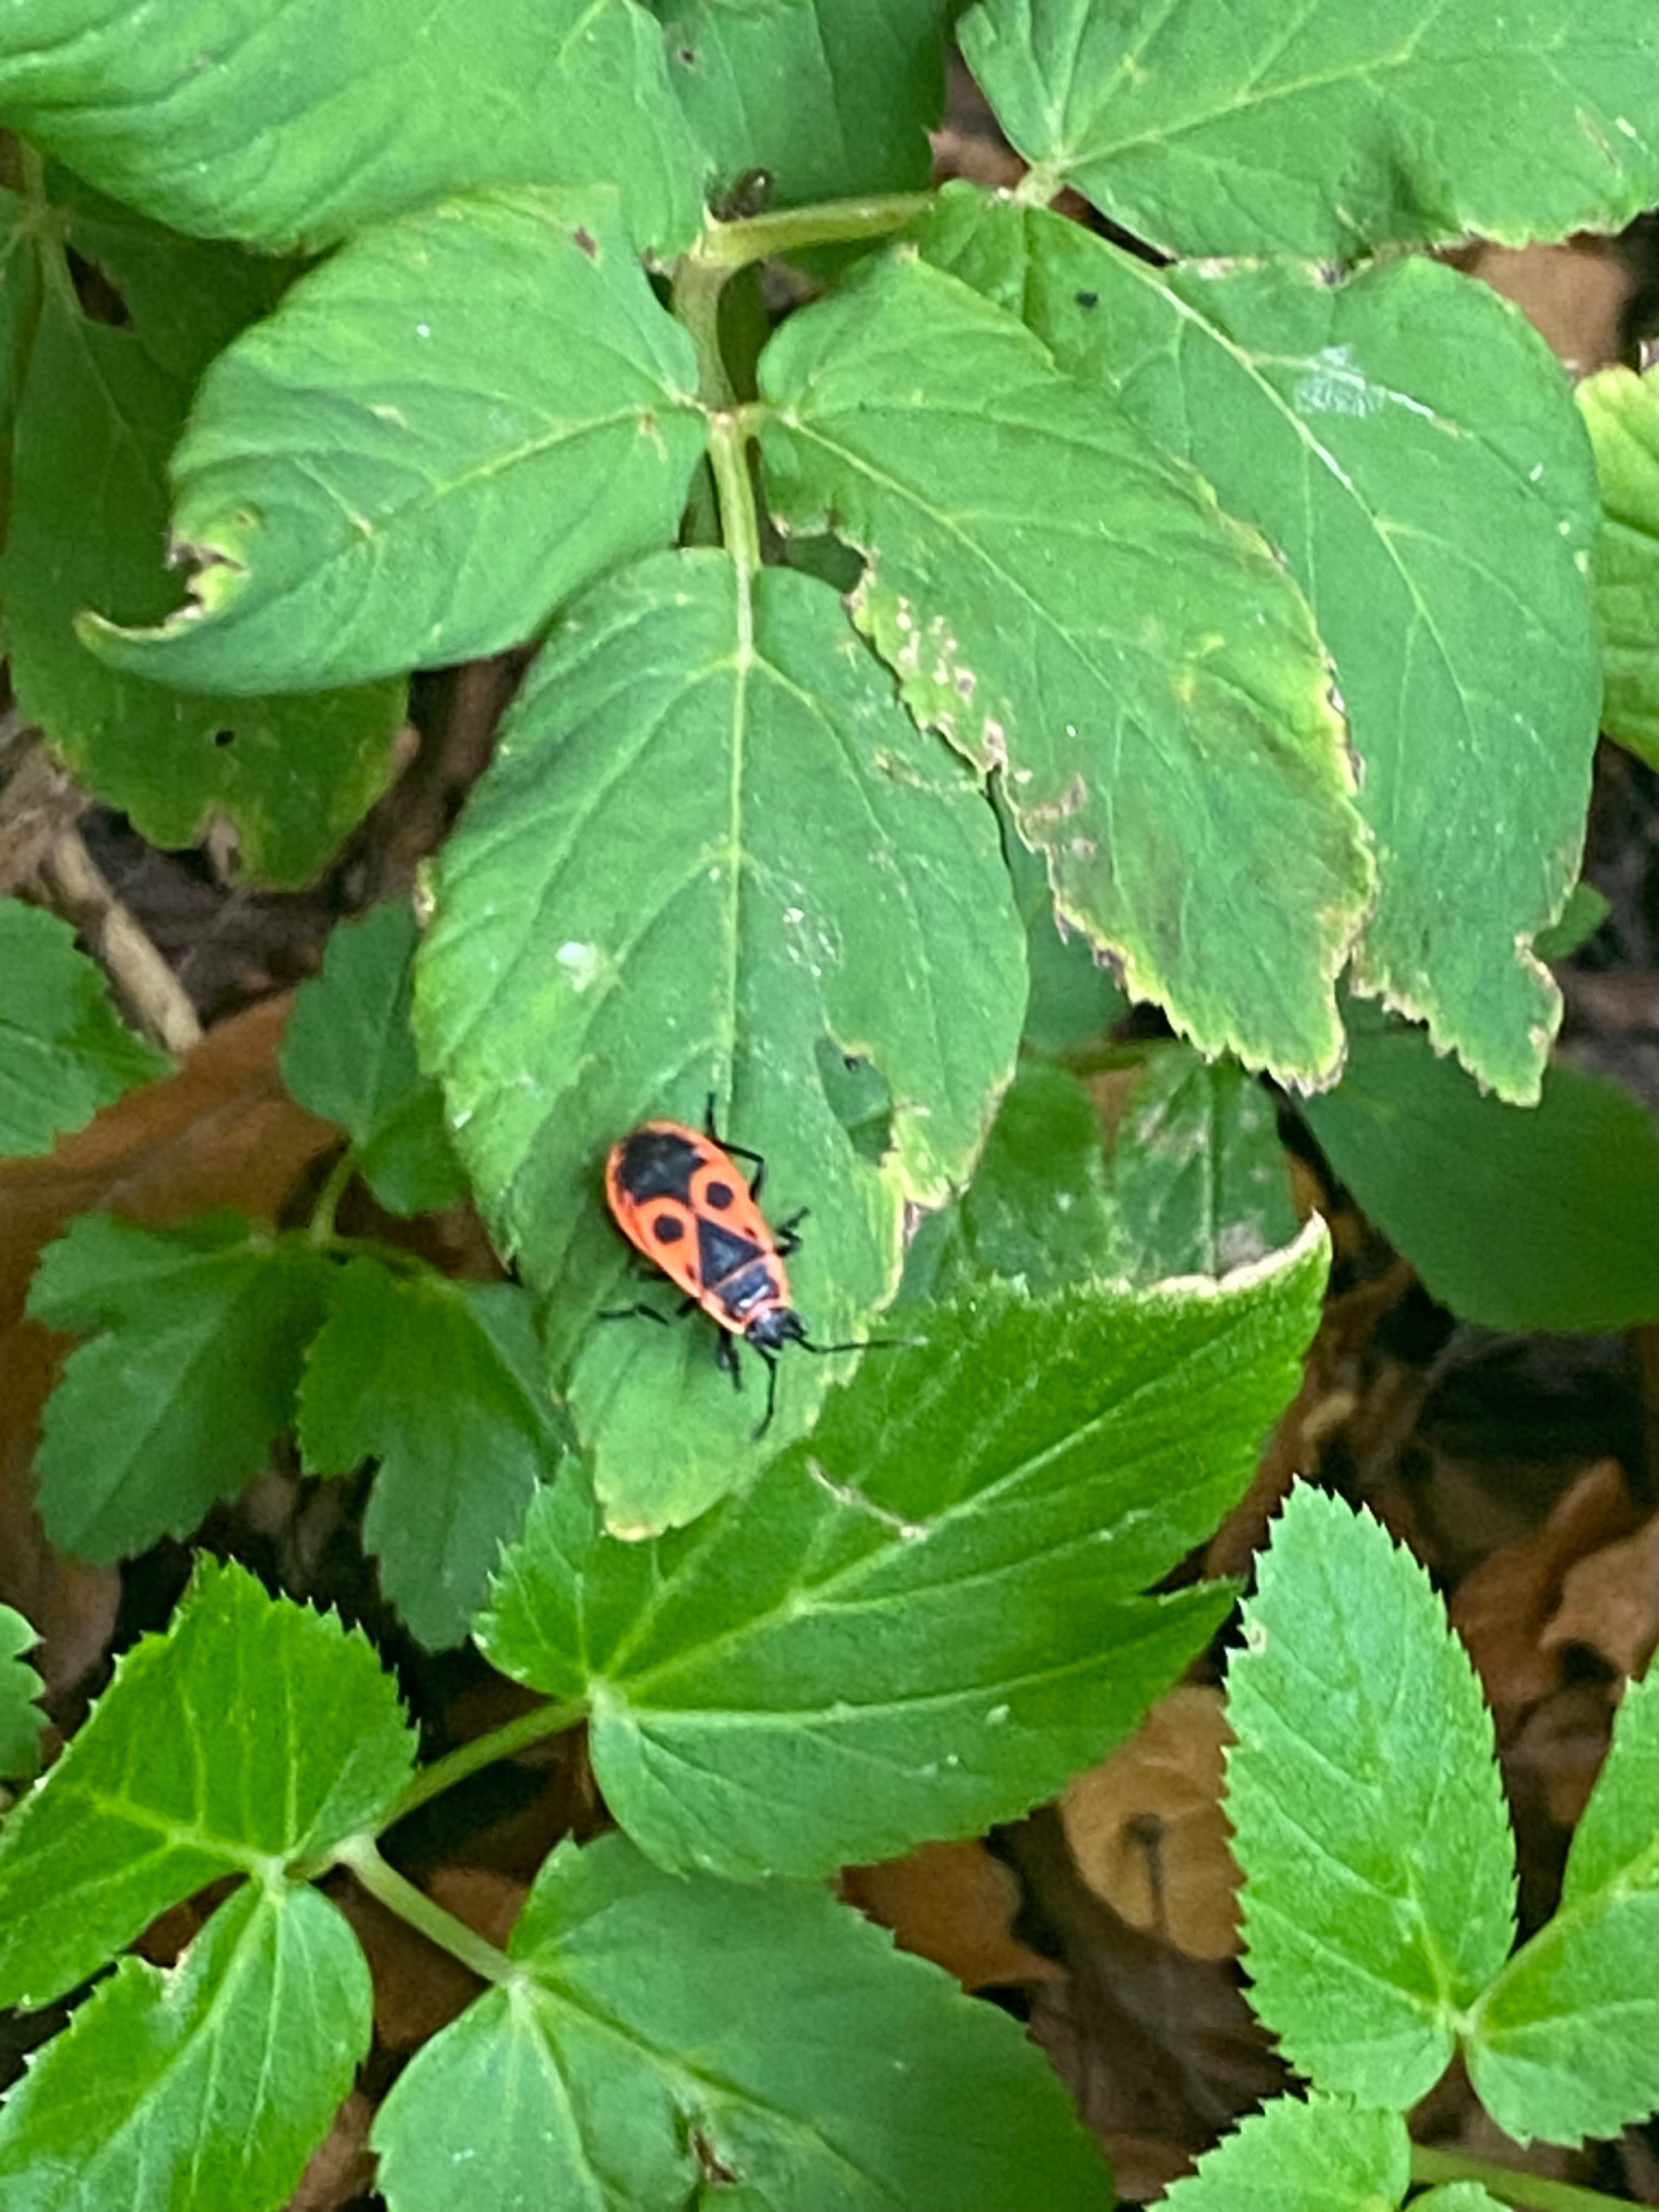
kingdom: Animalia
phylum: Arthropoda
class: Insecta
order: Hemiptera
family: Pyrrhocoridae
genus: Pyrrhocoris
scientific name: Pyrrhocoris apterus
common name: Ildtæge
